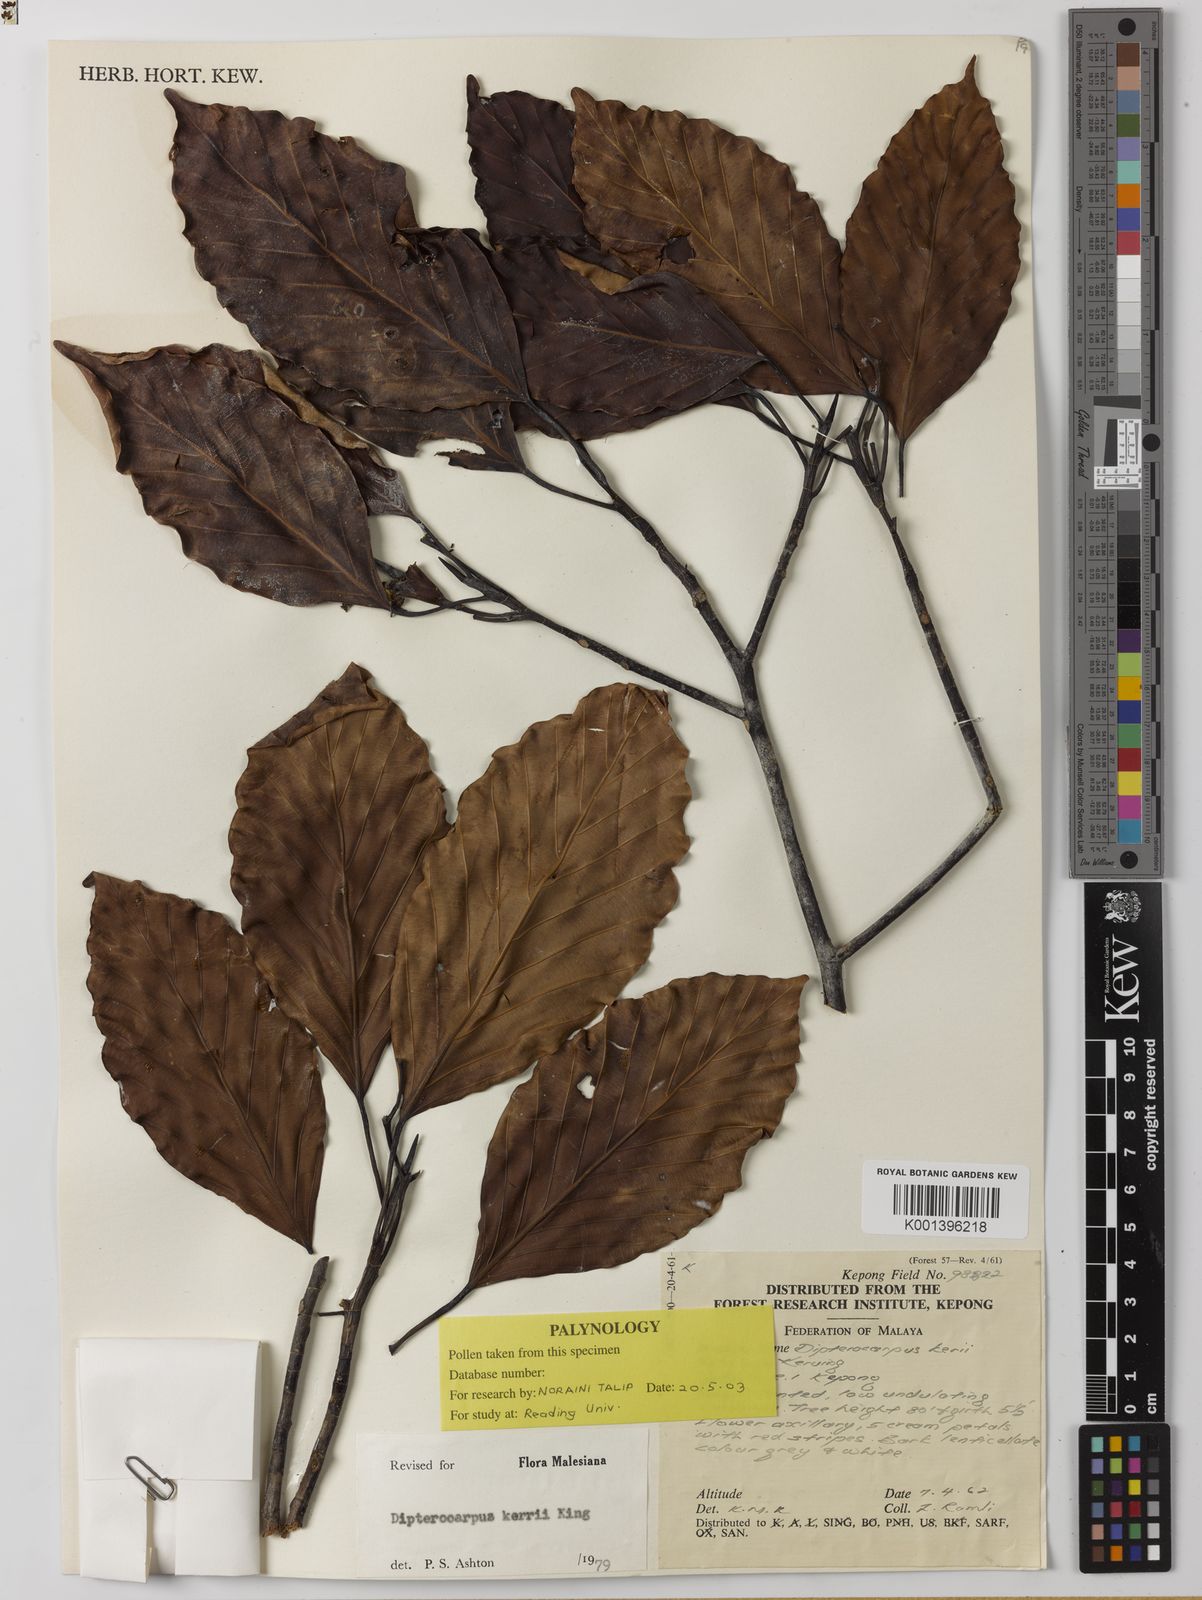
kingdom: Plantae
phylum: Tracheophyta
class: Magnoliopsida
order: Malvales
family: Dipterocarpaceae
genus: Dipterocarpus
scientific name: Dipterocarpus kerrii
